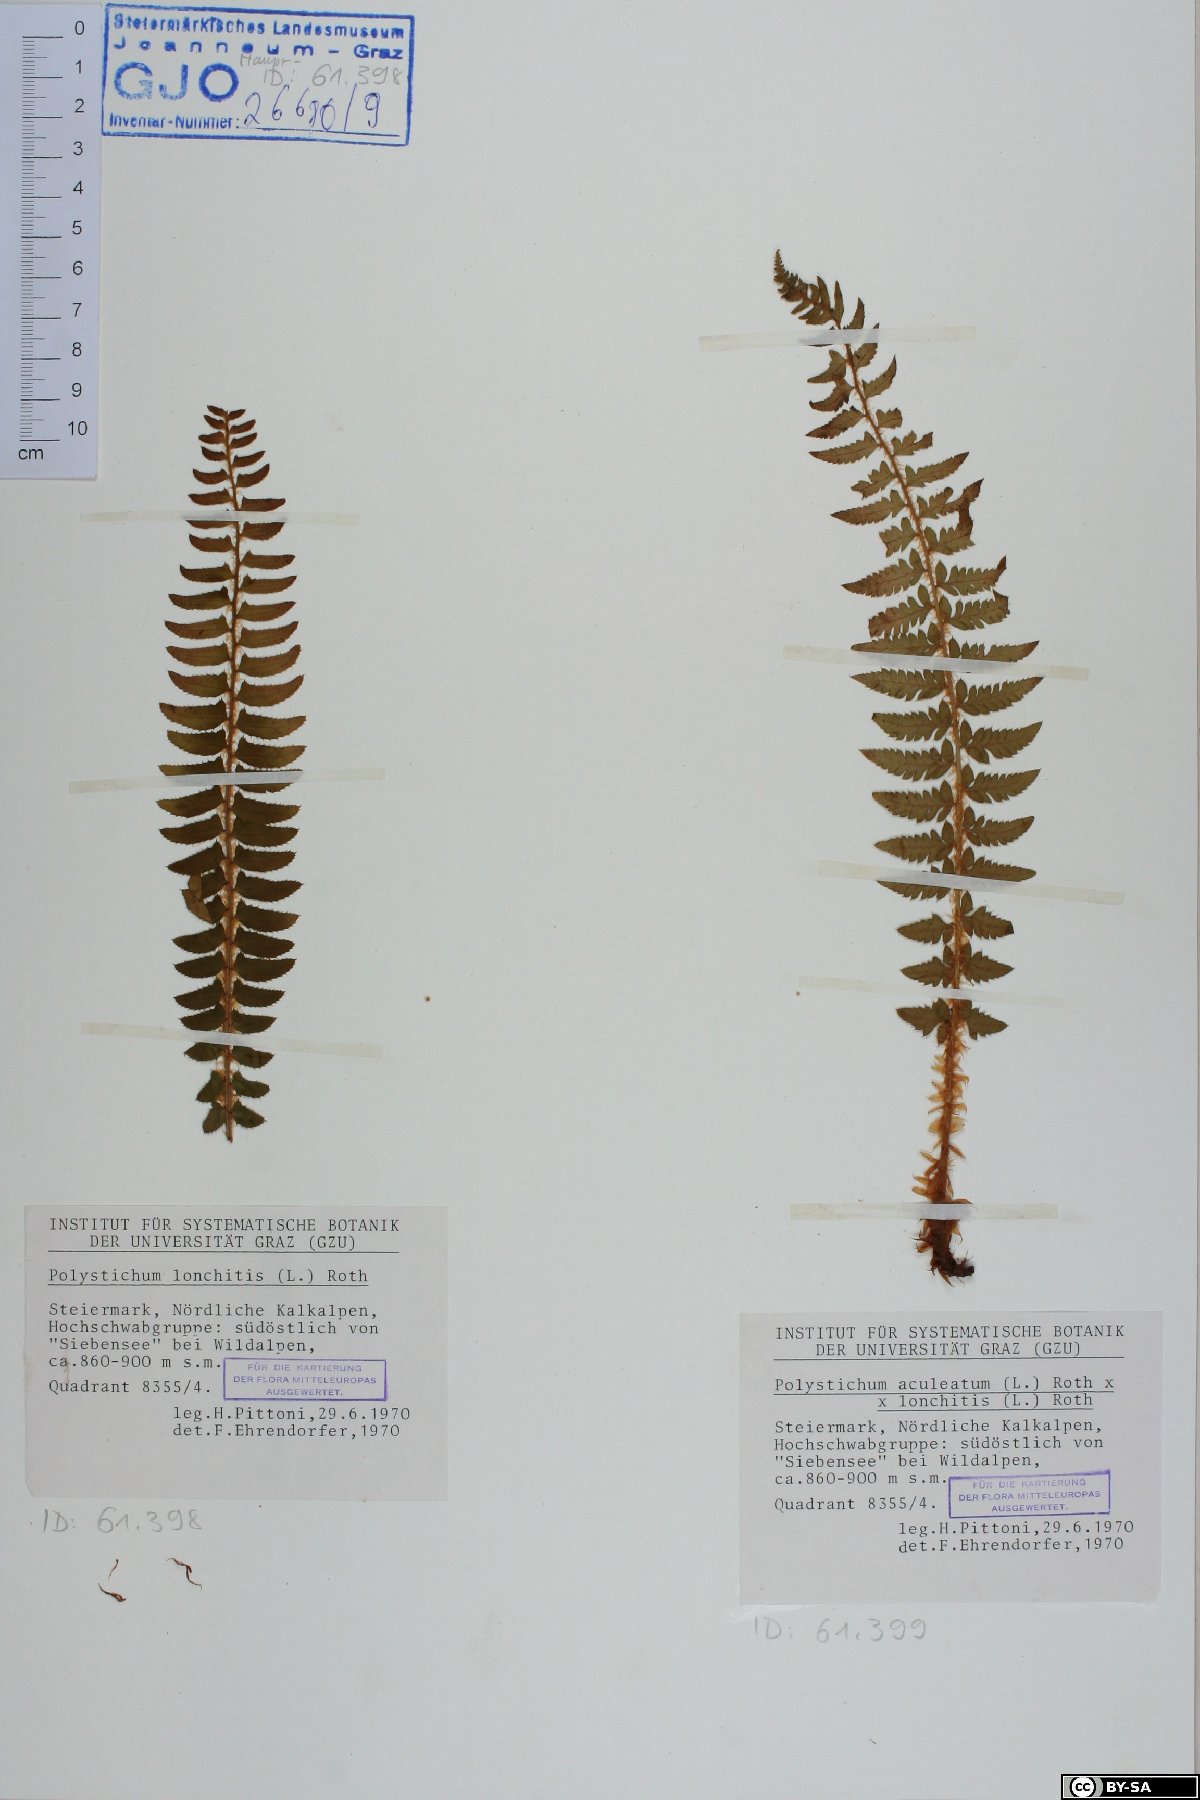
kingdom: Plantae
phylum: Tracheophyta
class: Polypodiopsida
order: Polypodiales
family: Dryopteridaceae
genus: Polystichum
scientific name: Polystichum lonchitis
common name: Holly fern
